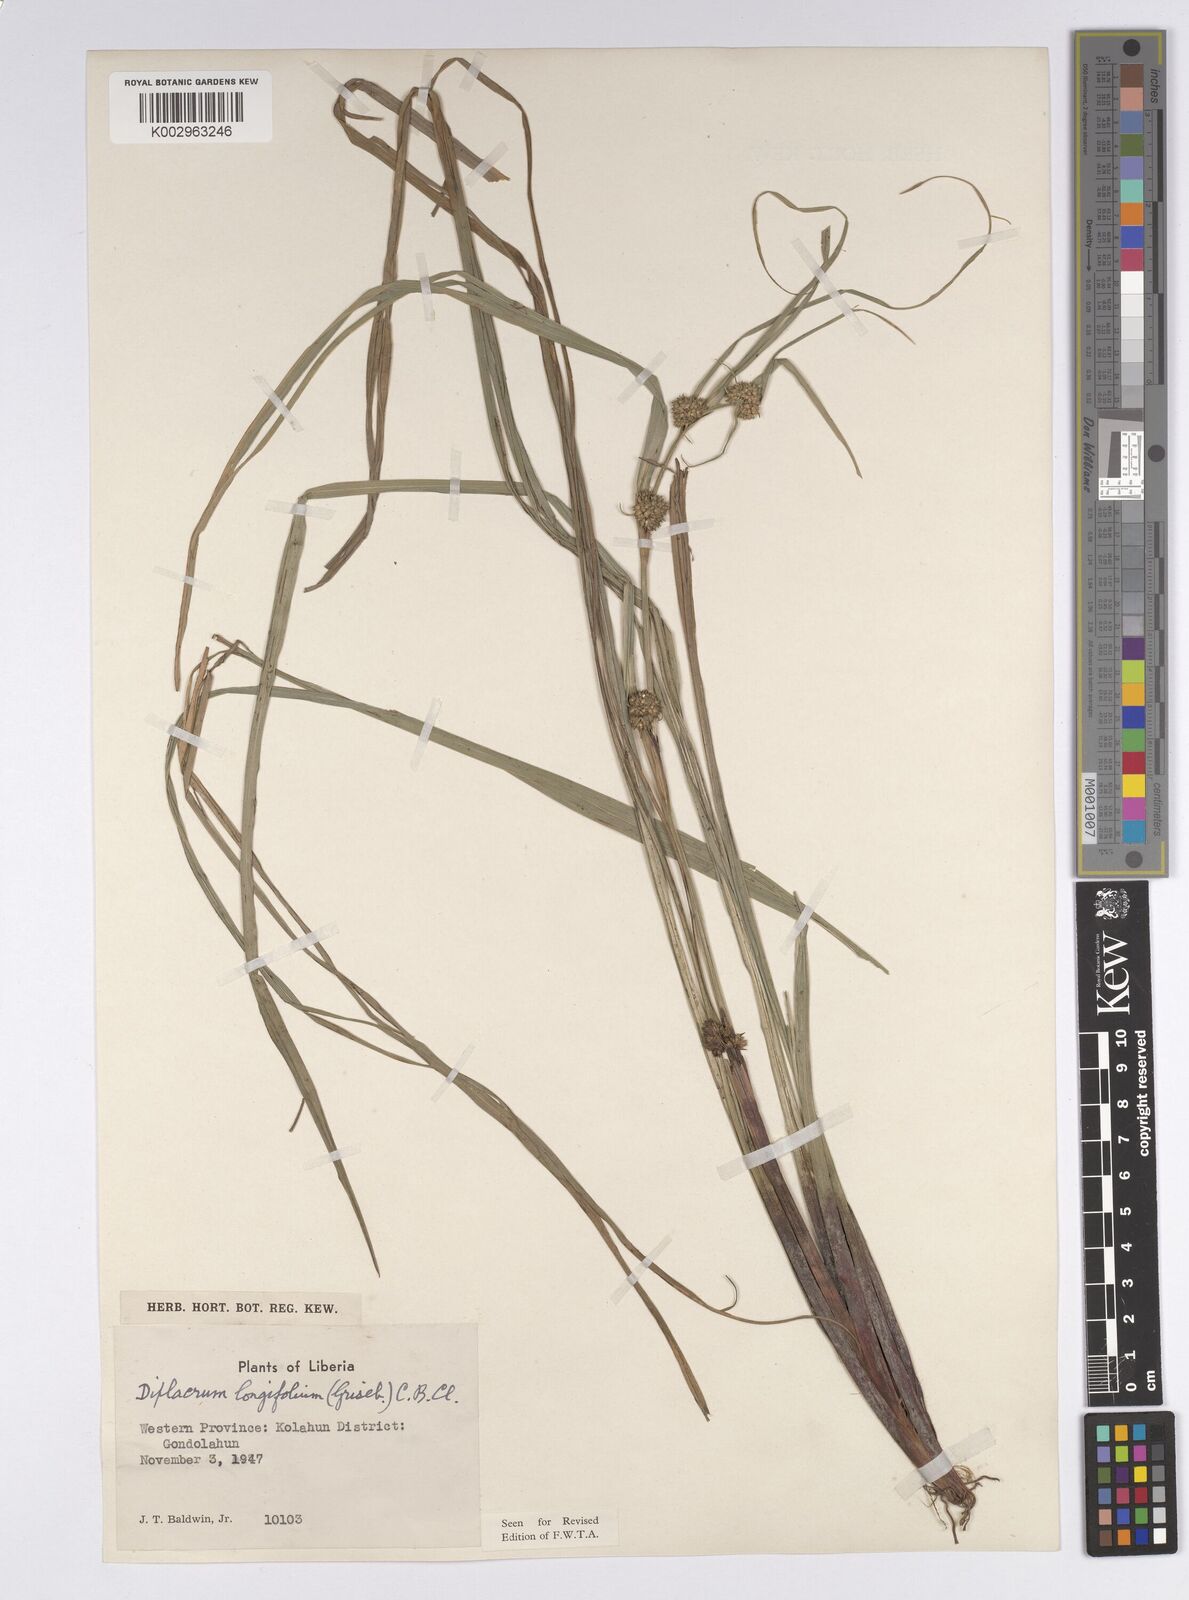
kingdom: Plantae
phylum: Tracheophyta
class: Liliopsida
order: Poales
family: Cyperaceae
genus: Diplacrum
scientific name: Diplacrum capitatum
